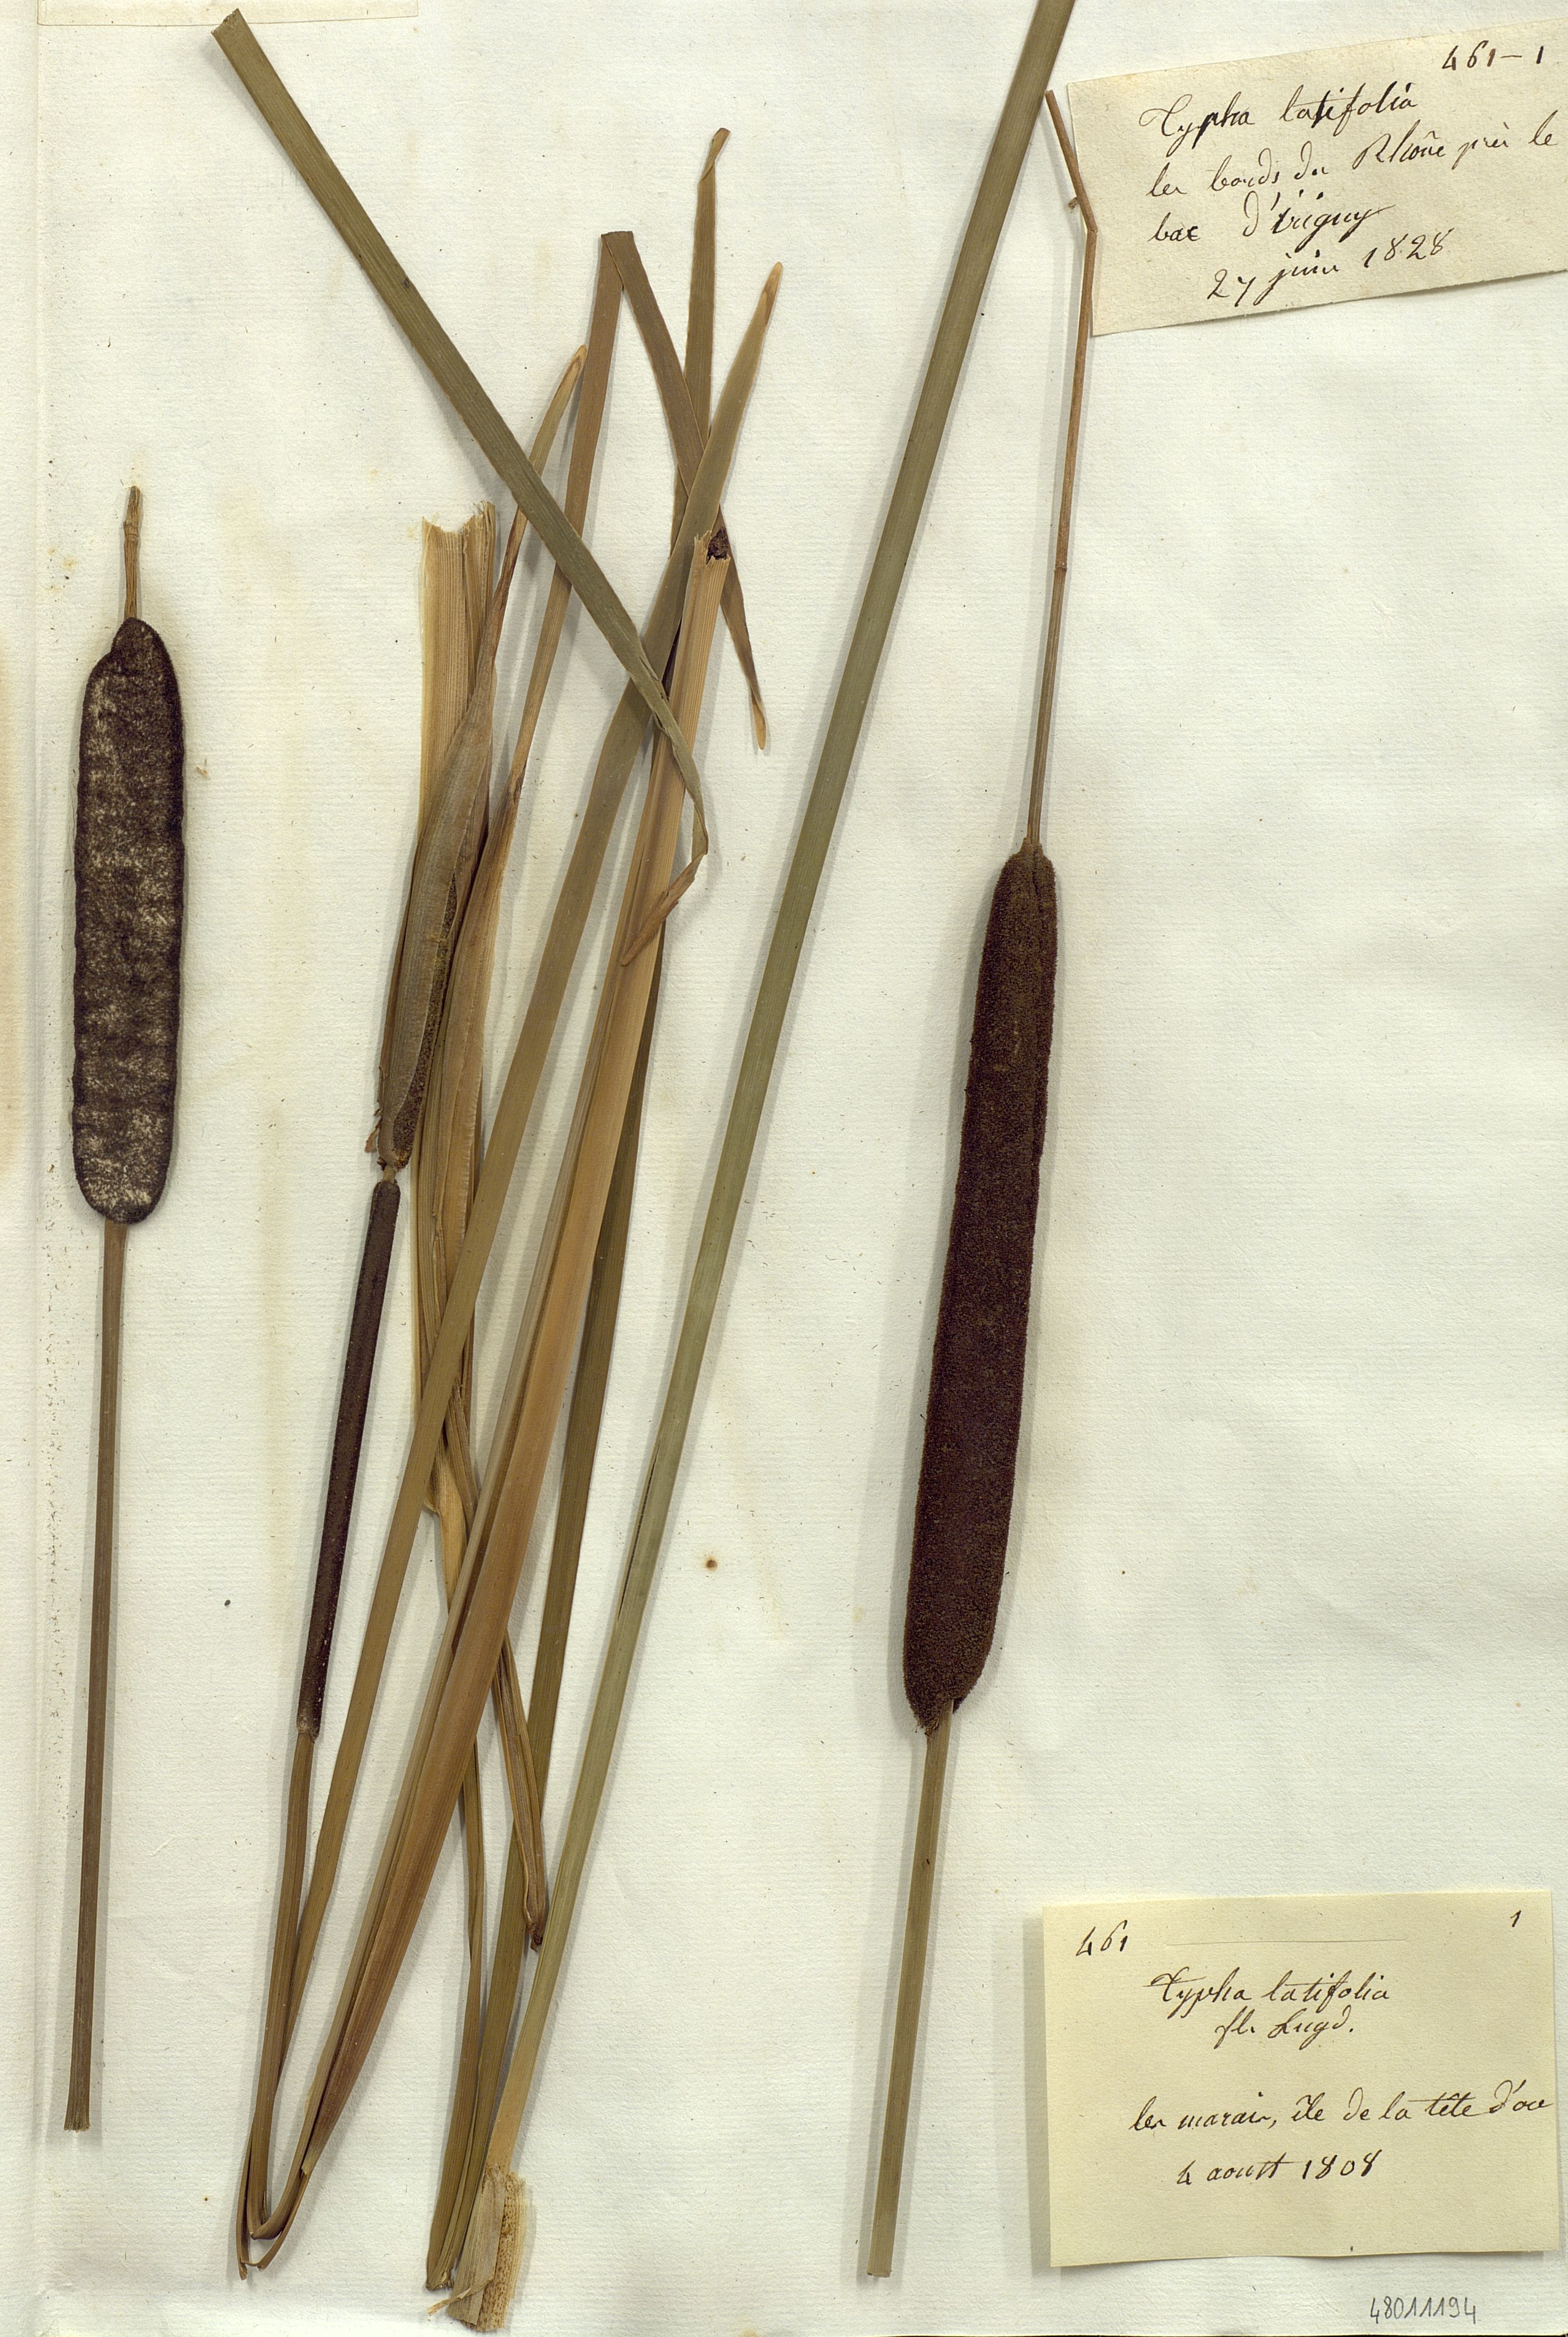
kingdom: Plantae
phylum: Tracheophyta
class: Liliopsida
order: Poales
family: Typhaceae
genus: Typha
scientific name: Typha latifolia
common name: Broadleaf cattail
